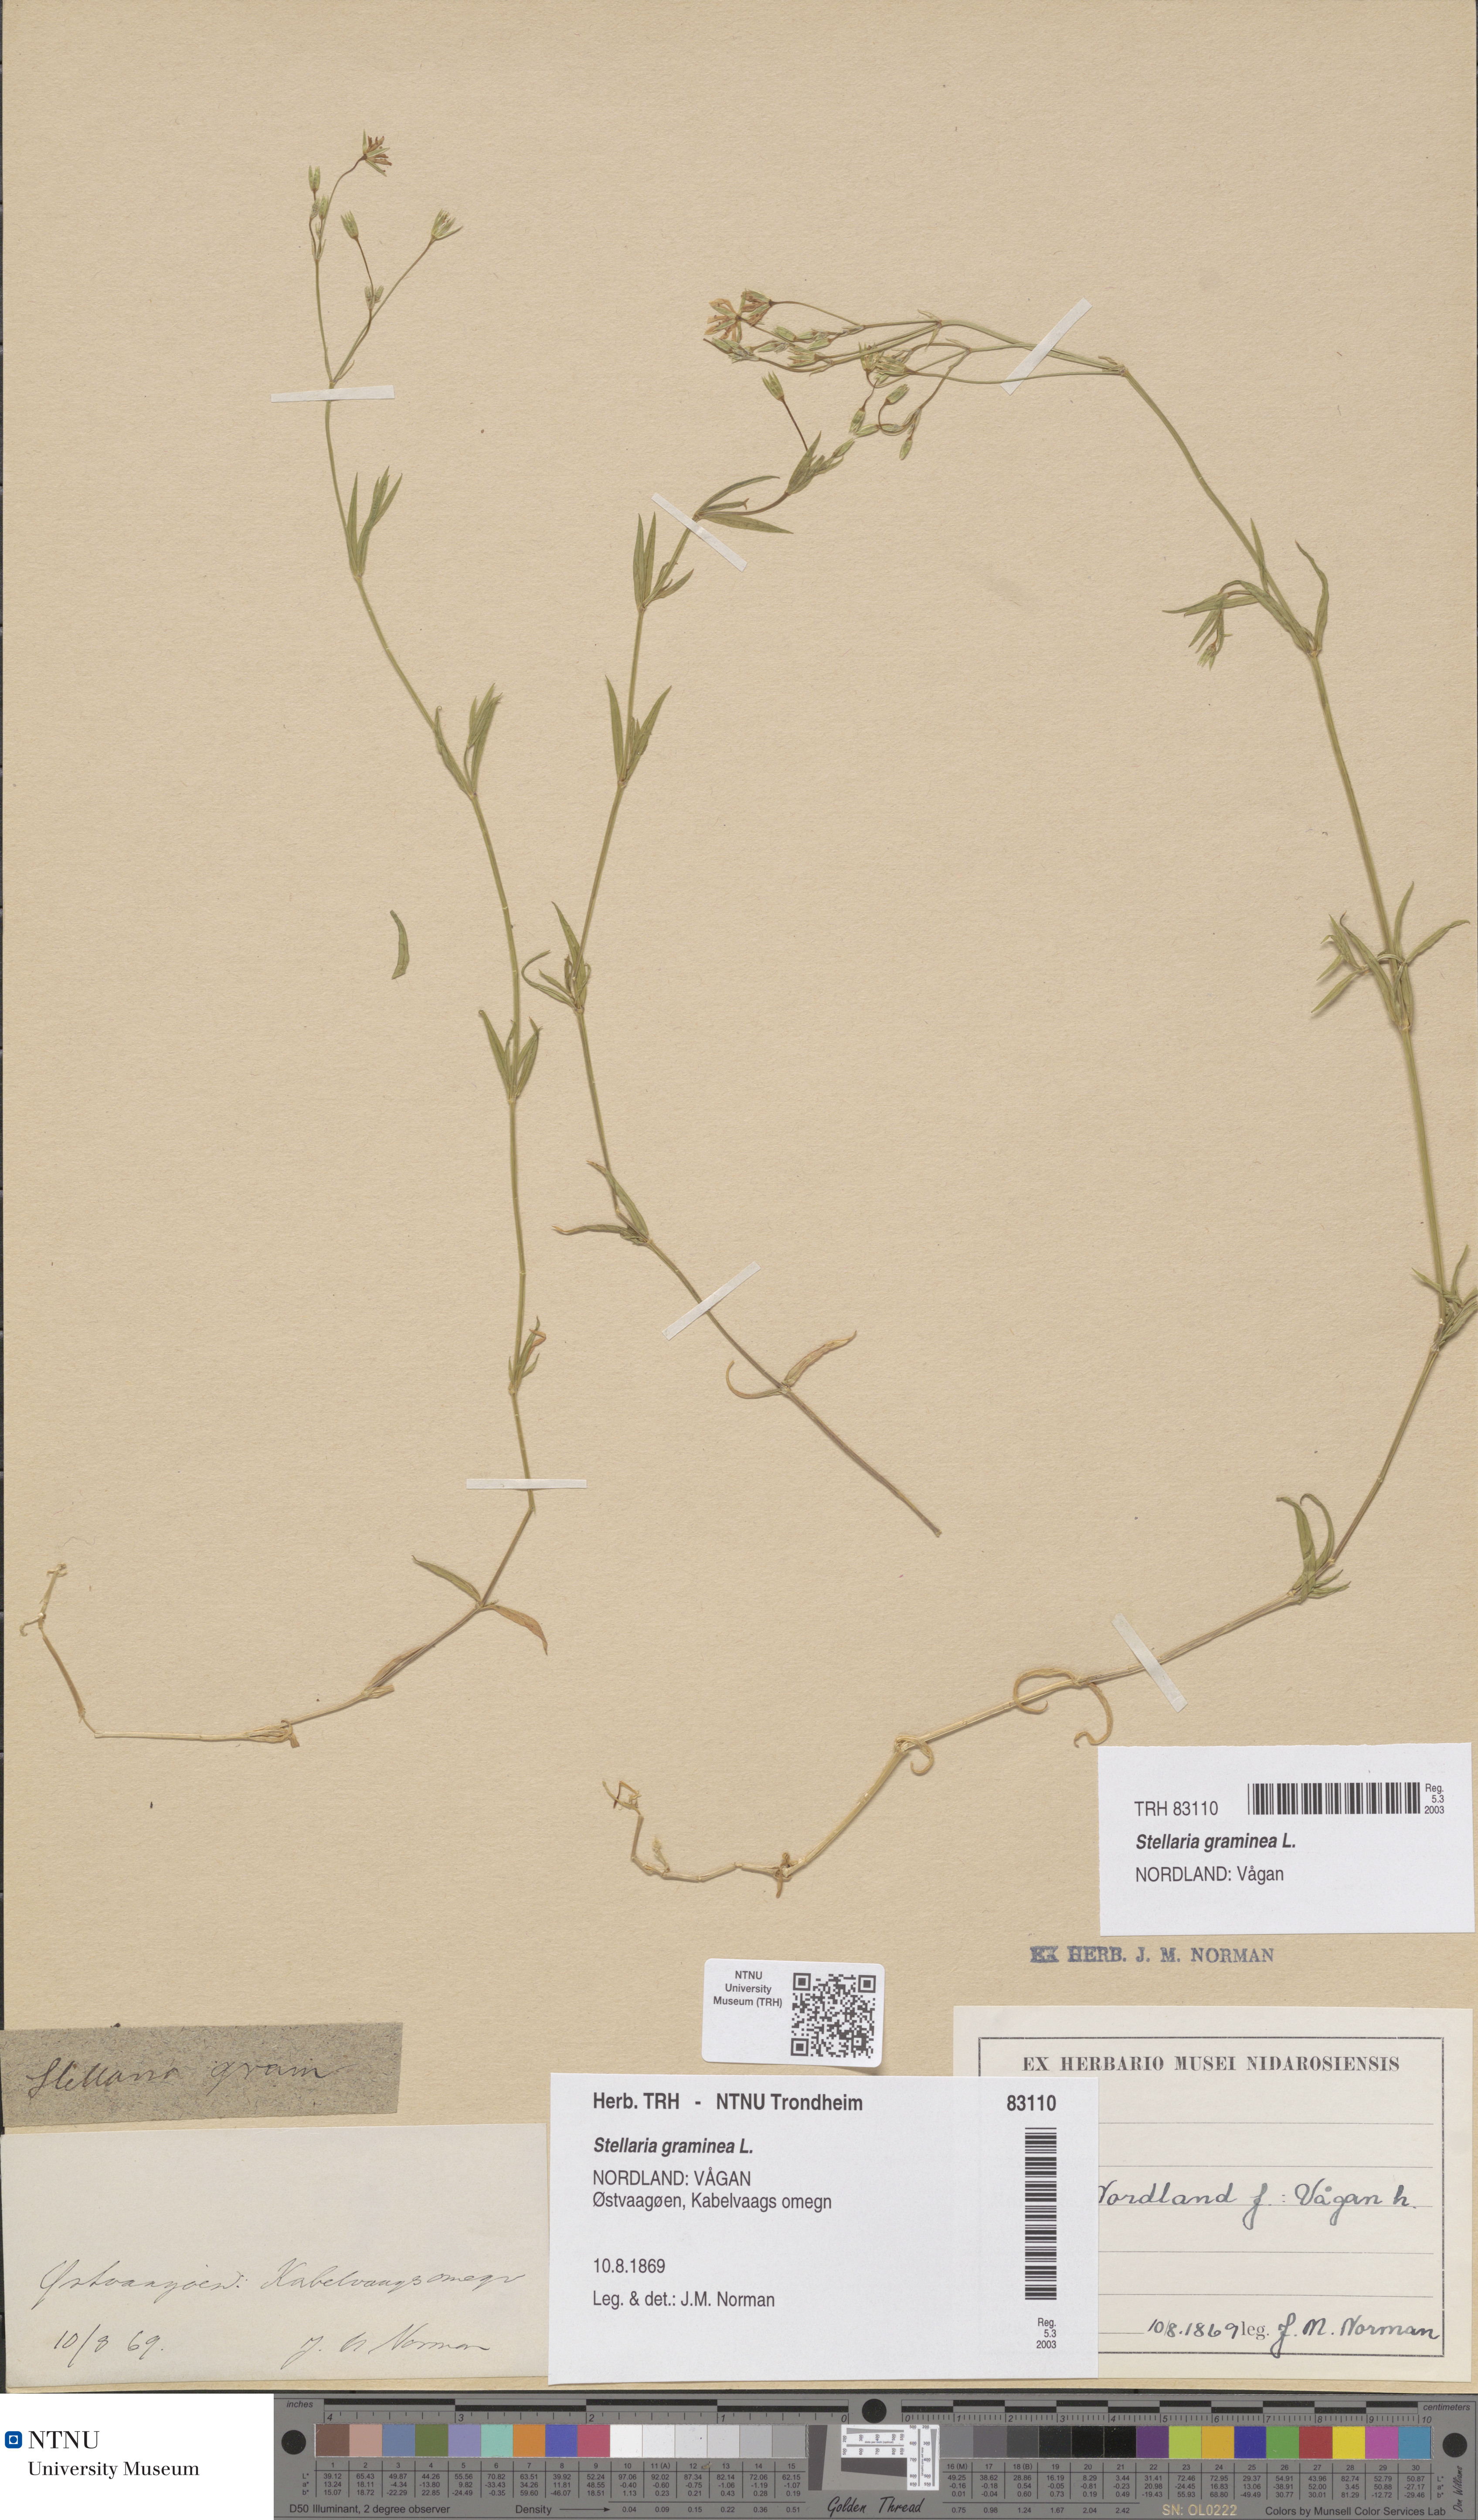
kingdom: Plantae
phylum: Tracheophyta
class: Magnoliopsida
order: Caryophyllales
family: Caryophyllaceae
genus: Stellaria
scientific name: Stellaria graminea
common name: Grass-like starwort
